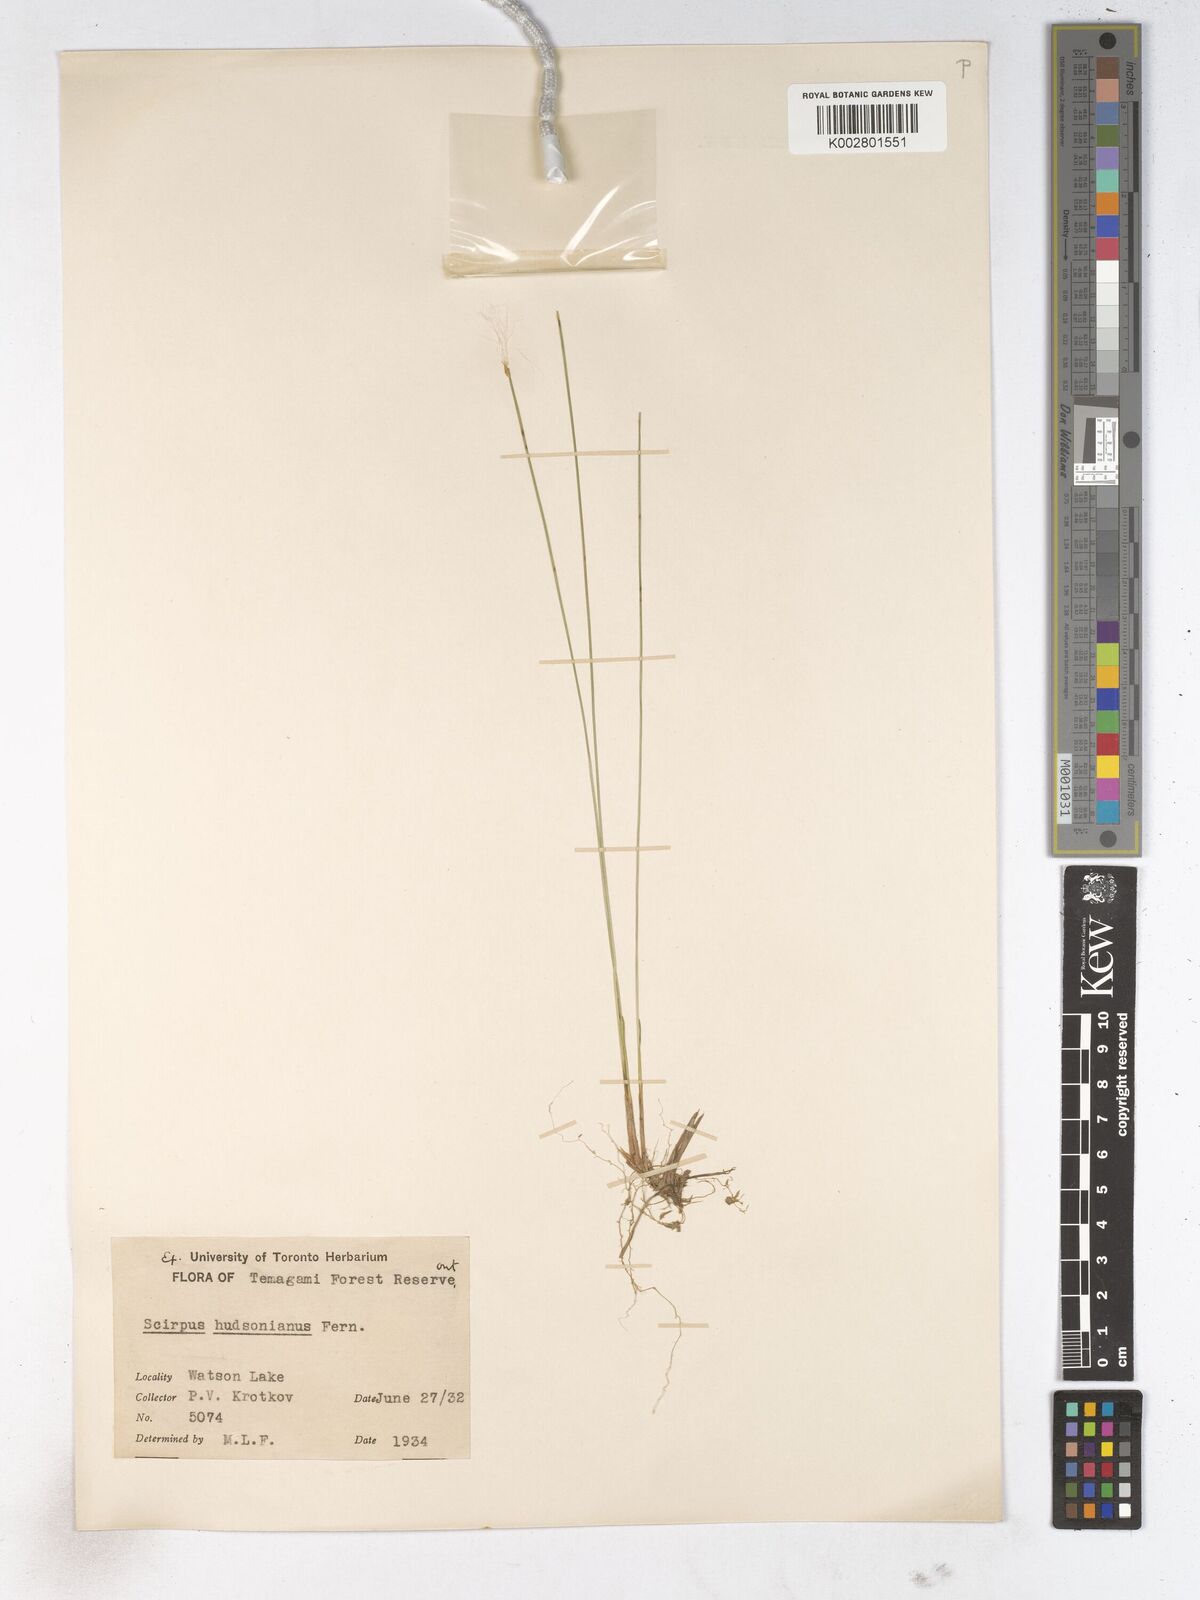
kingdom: Plantae
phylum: Tracheophyta
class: Liliopsida
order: Poales
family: Cyperaceae
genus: Trichophorum
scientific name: Trichophorum alpinum
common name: Alpine bulrush
